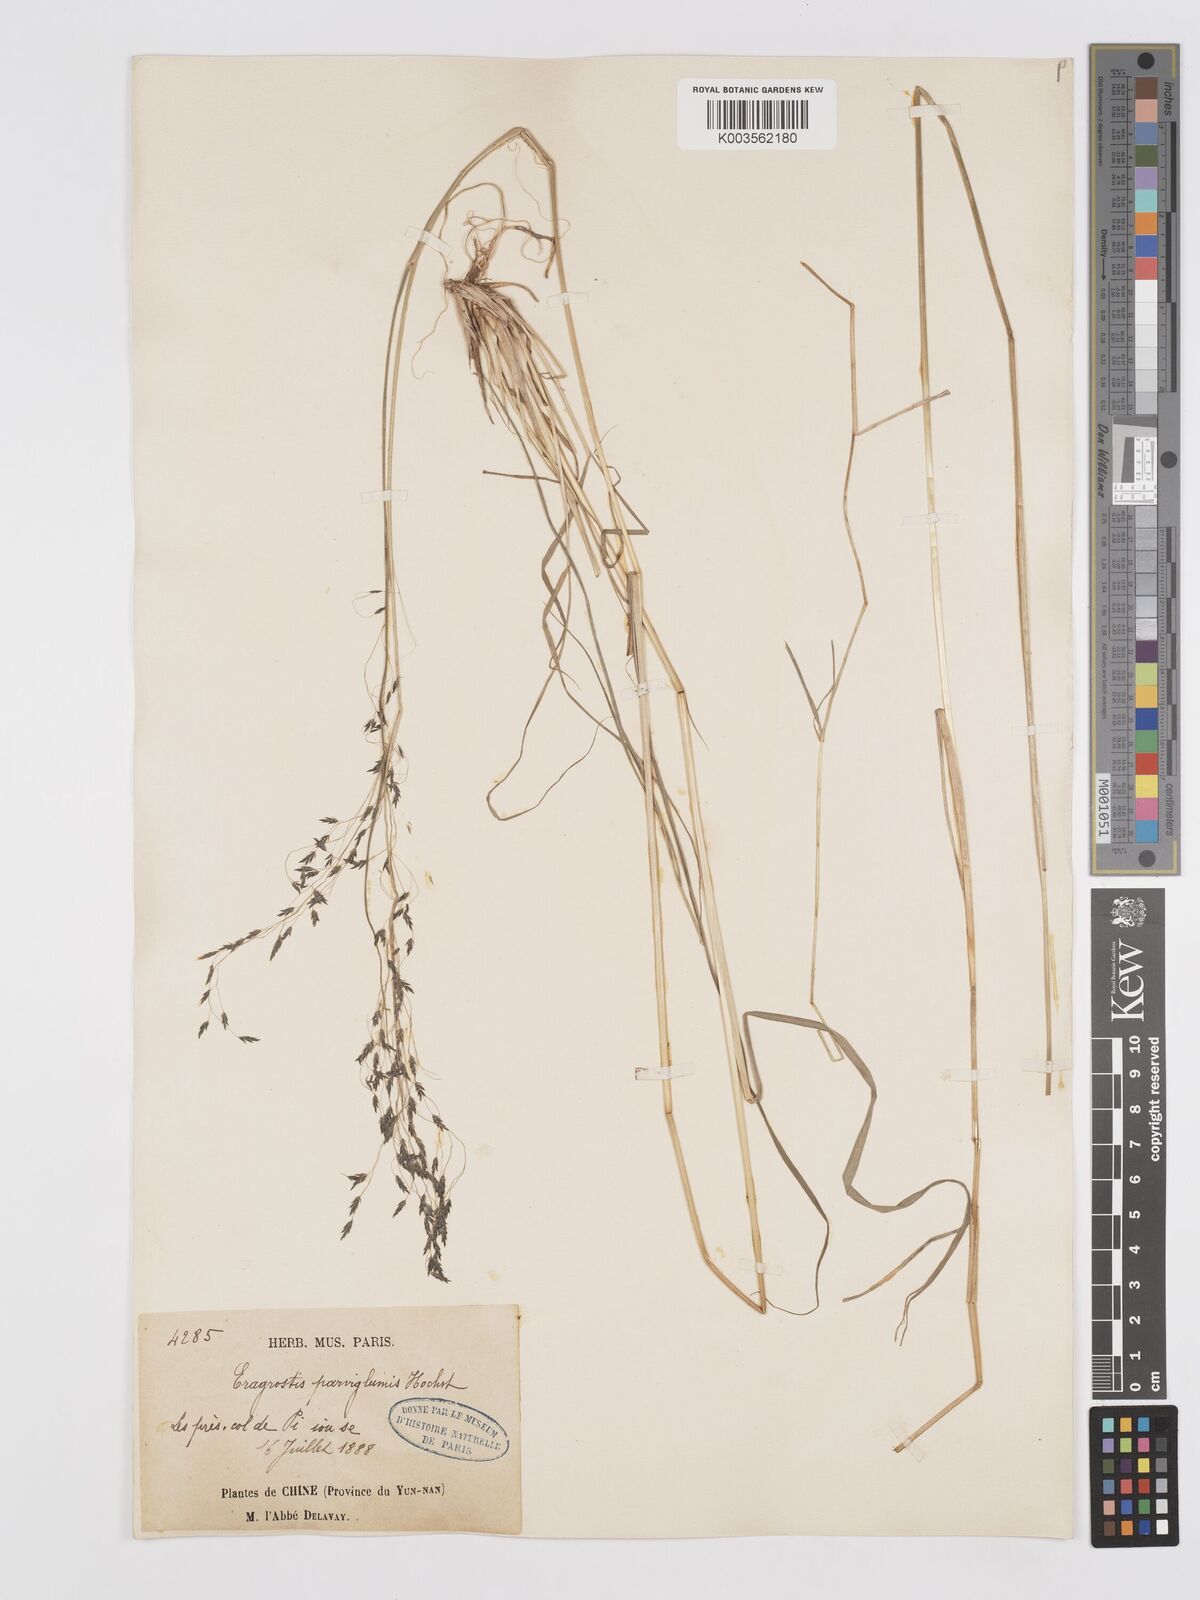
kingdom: Plantae
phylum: Tracheophyta
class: Liliopsida
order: Poales
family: Poaceae
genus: Eragrostis
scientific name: Eragrostis nigra
